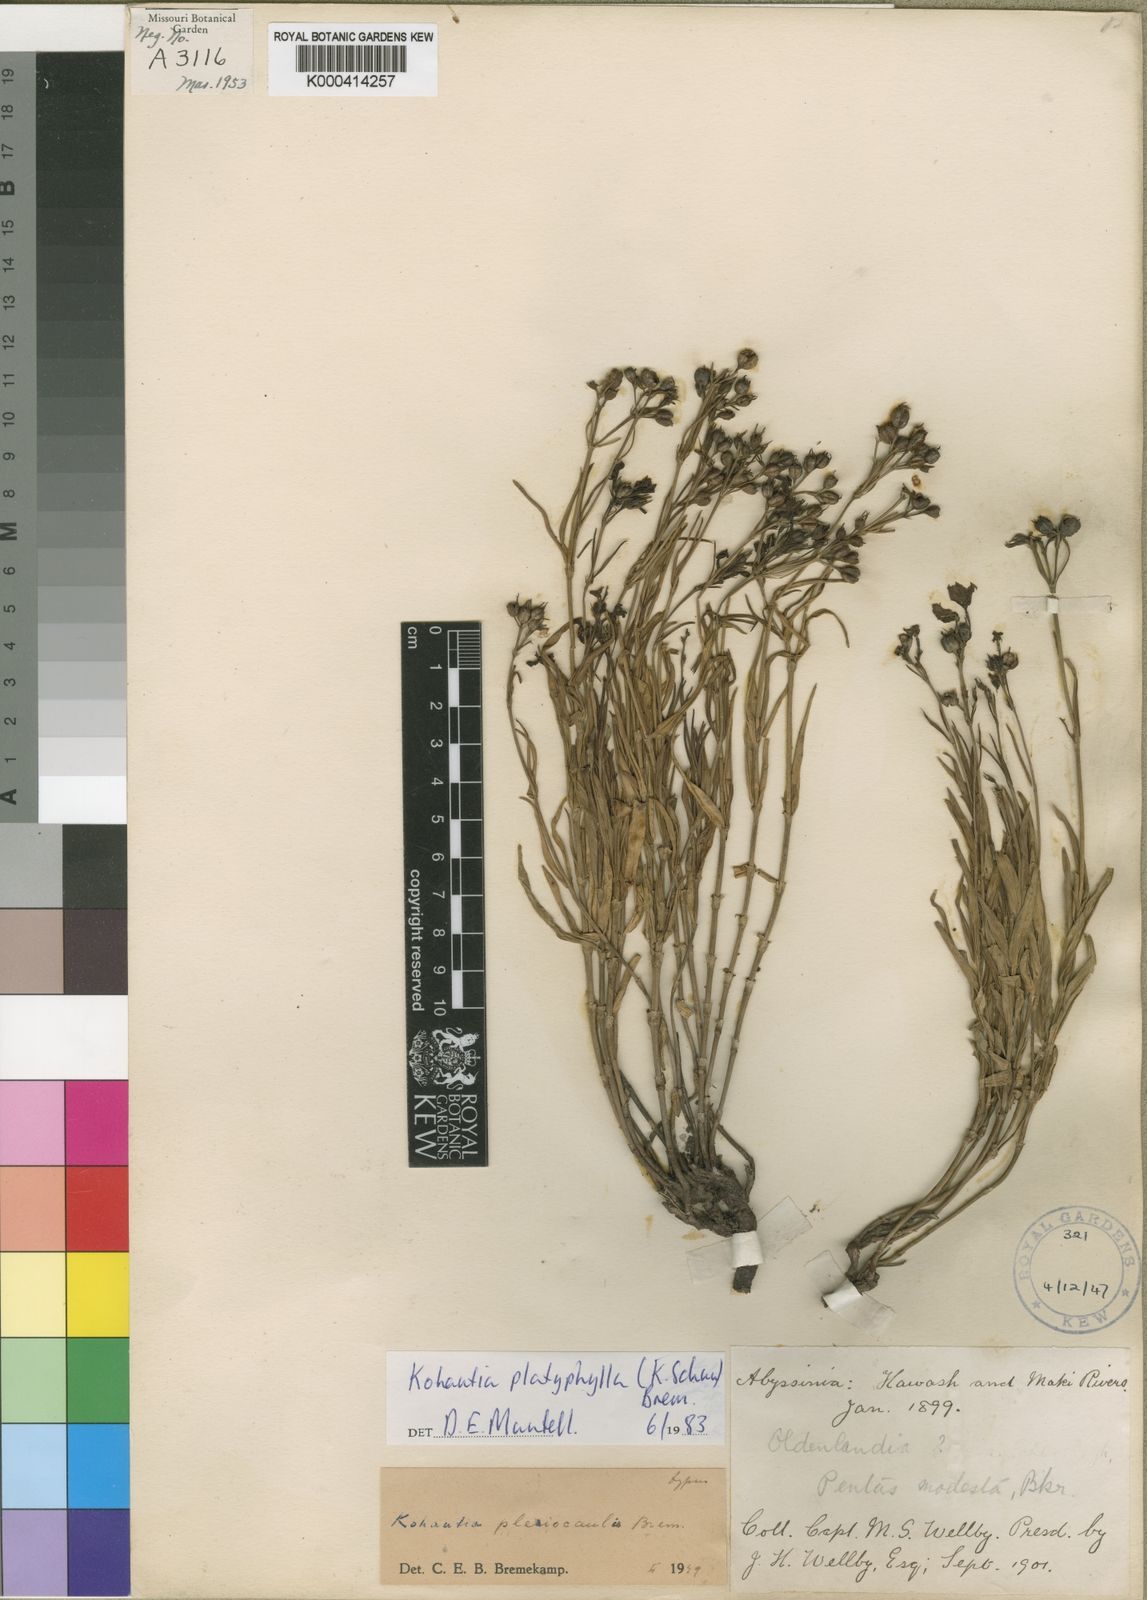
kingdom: Plantae
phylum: Tracheophyta
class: Magnoliopsida
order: Gentianales
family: Rubiaceae
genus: Kohautia
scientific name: Kohautia platyphylla
